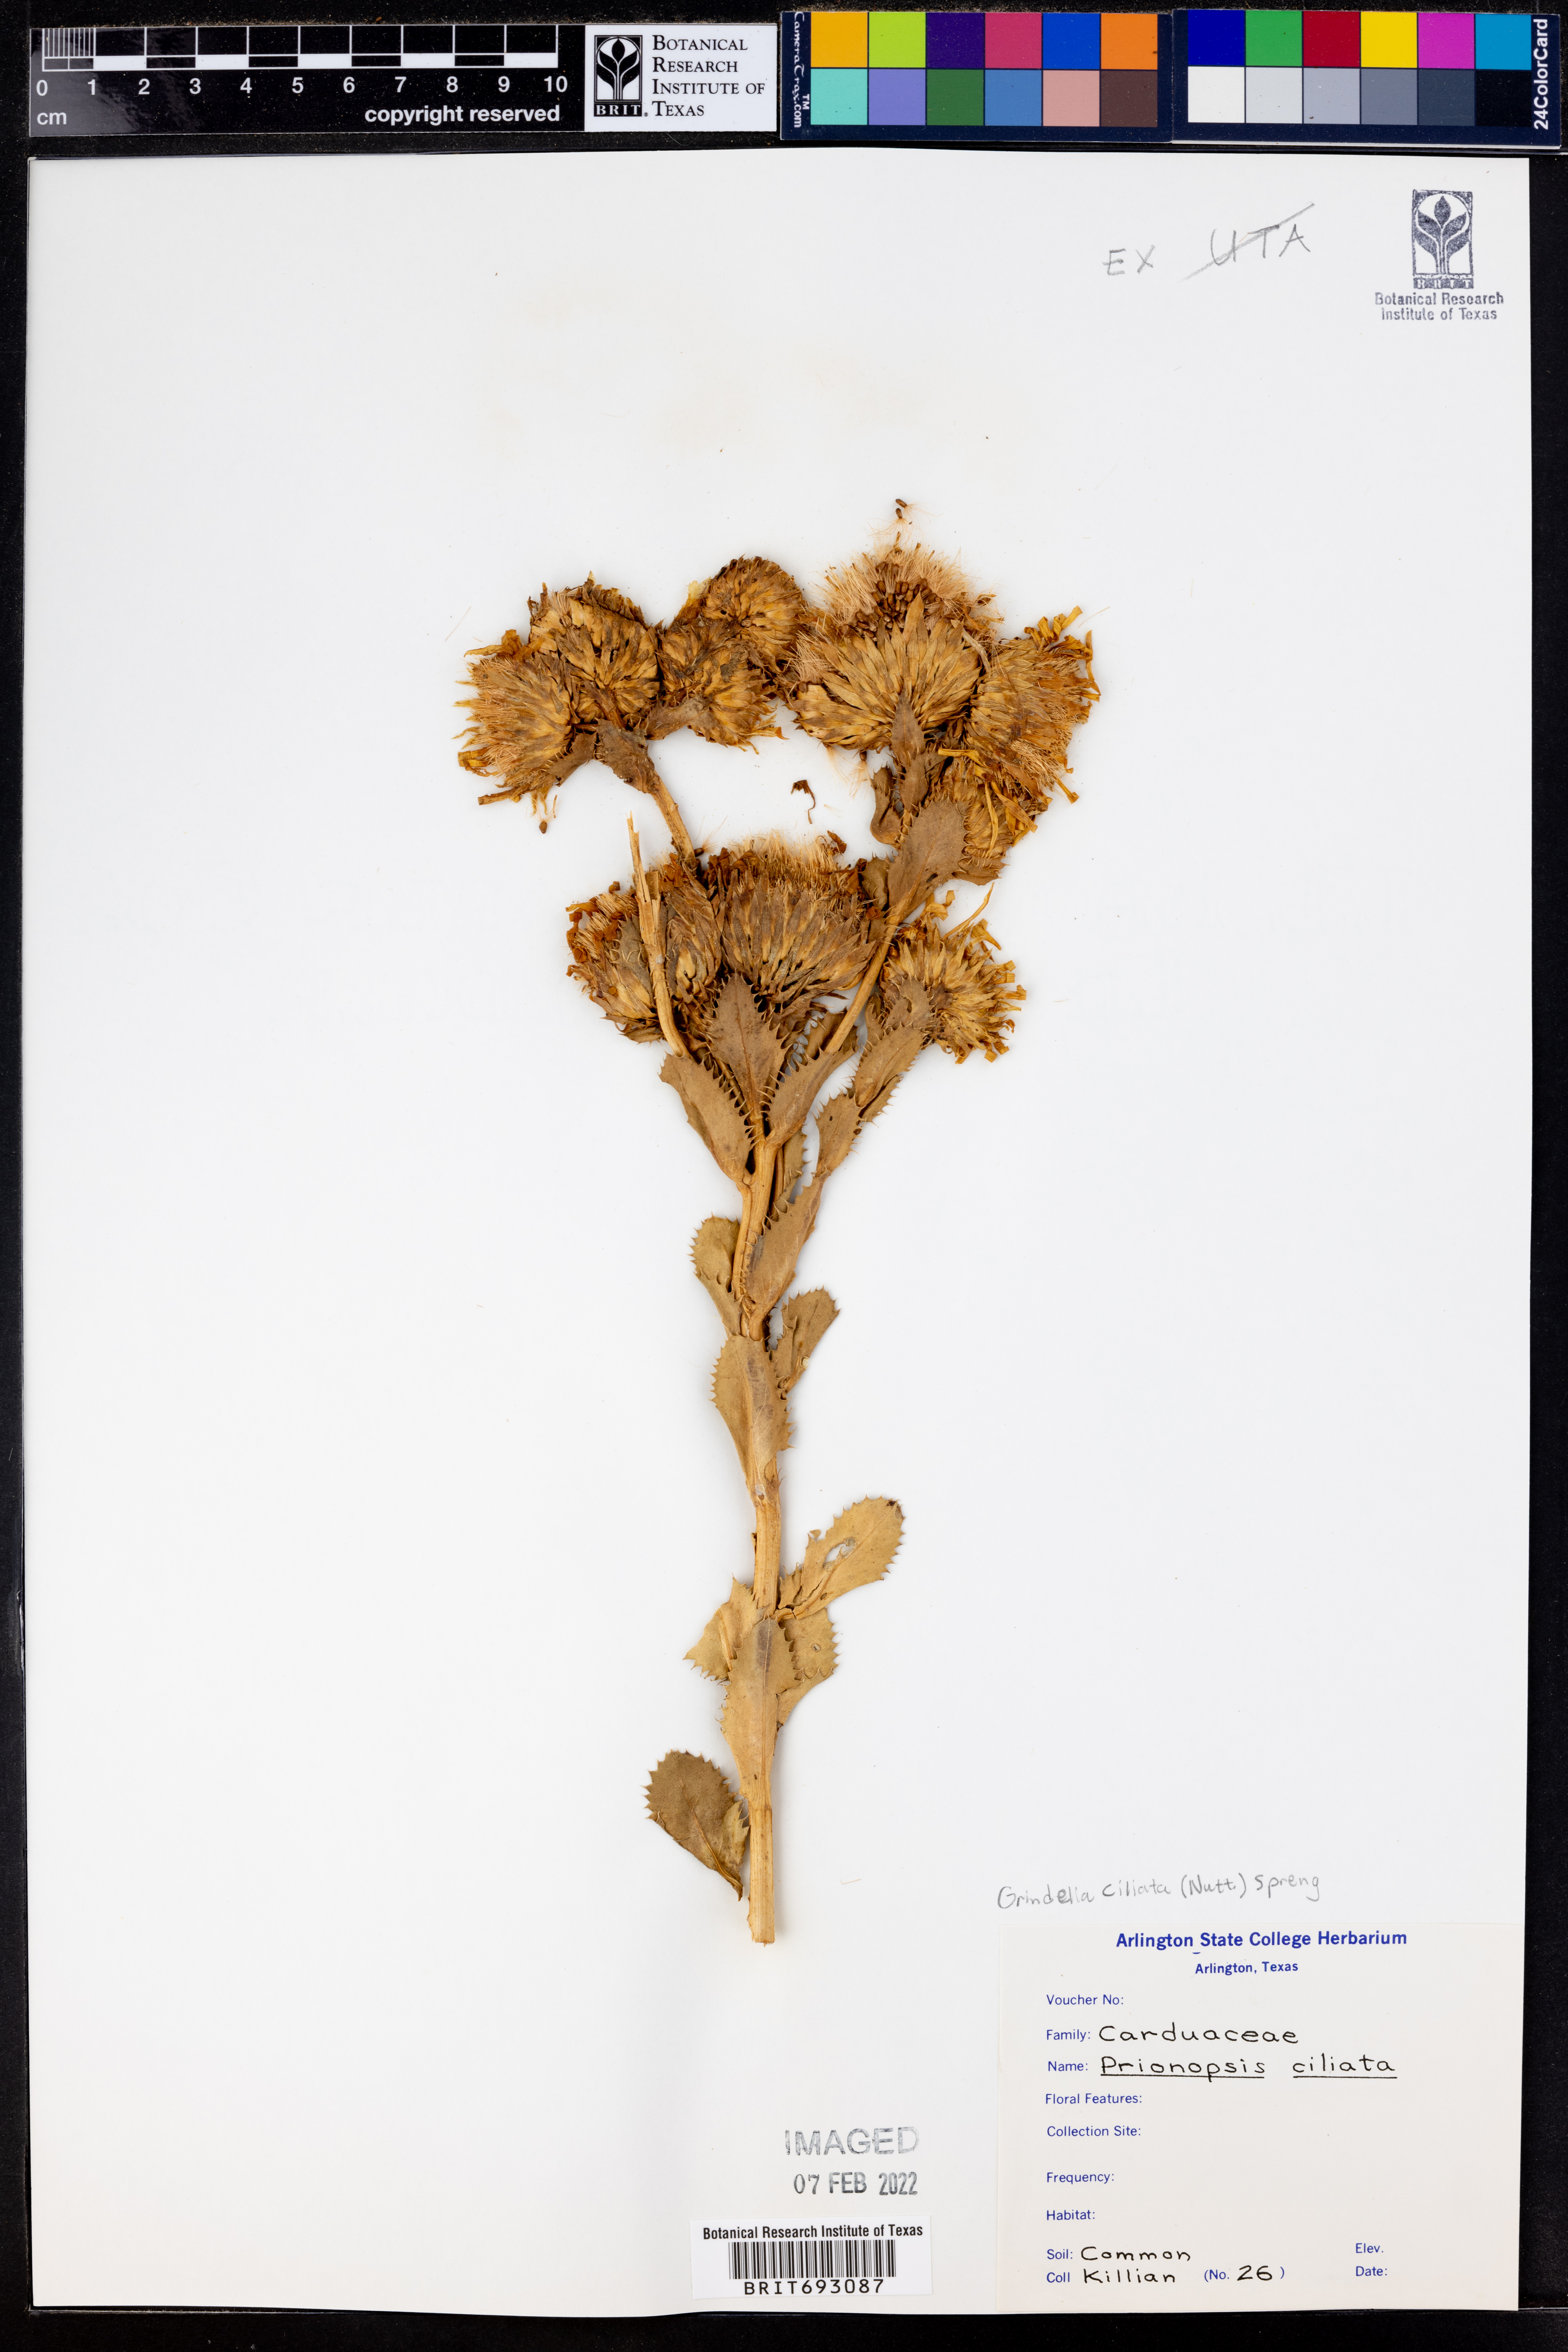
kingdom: Plantae
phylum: Tracheophyta
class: Magnoliopsida
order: Asterales
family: Asteraceae
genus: Grindelia
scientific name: Grindelia ciliata
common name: Goldenweed
